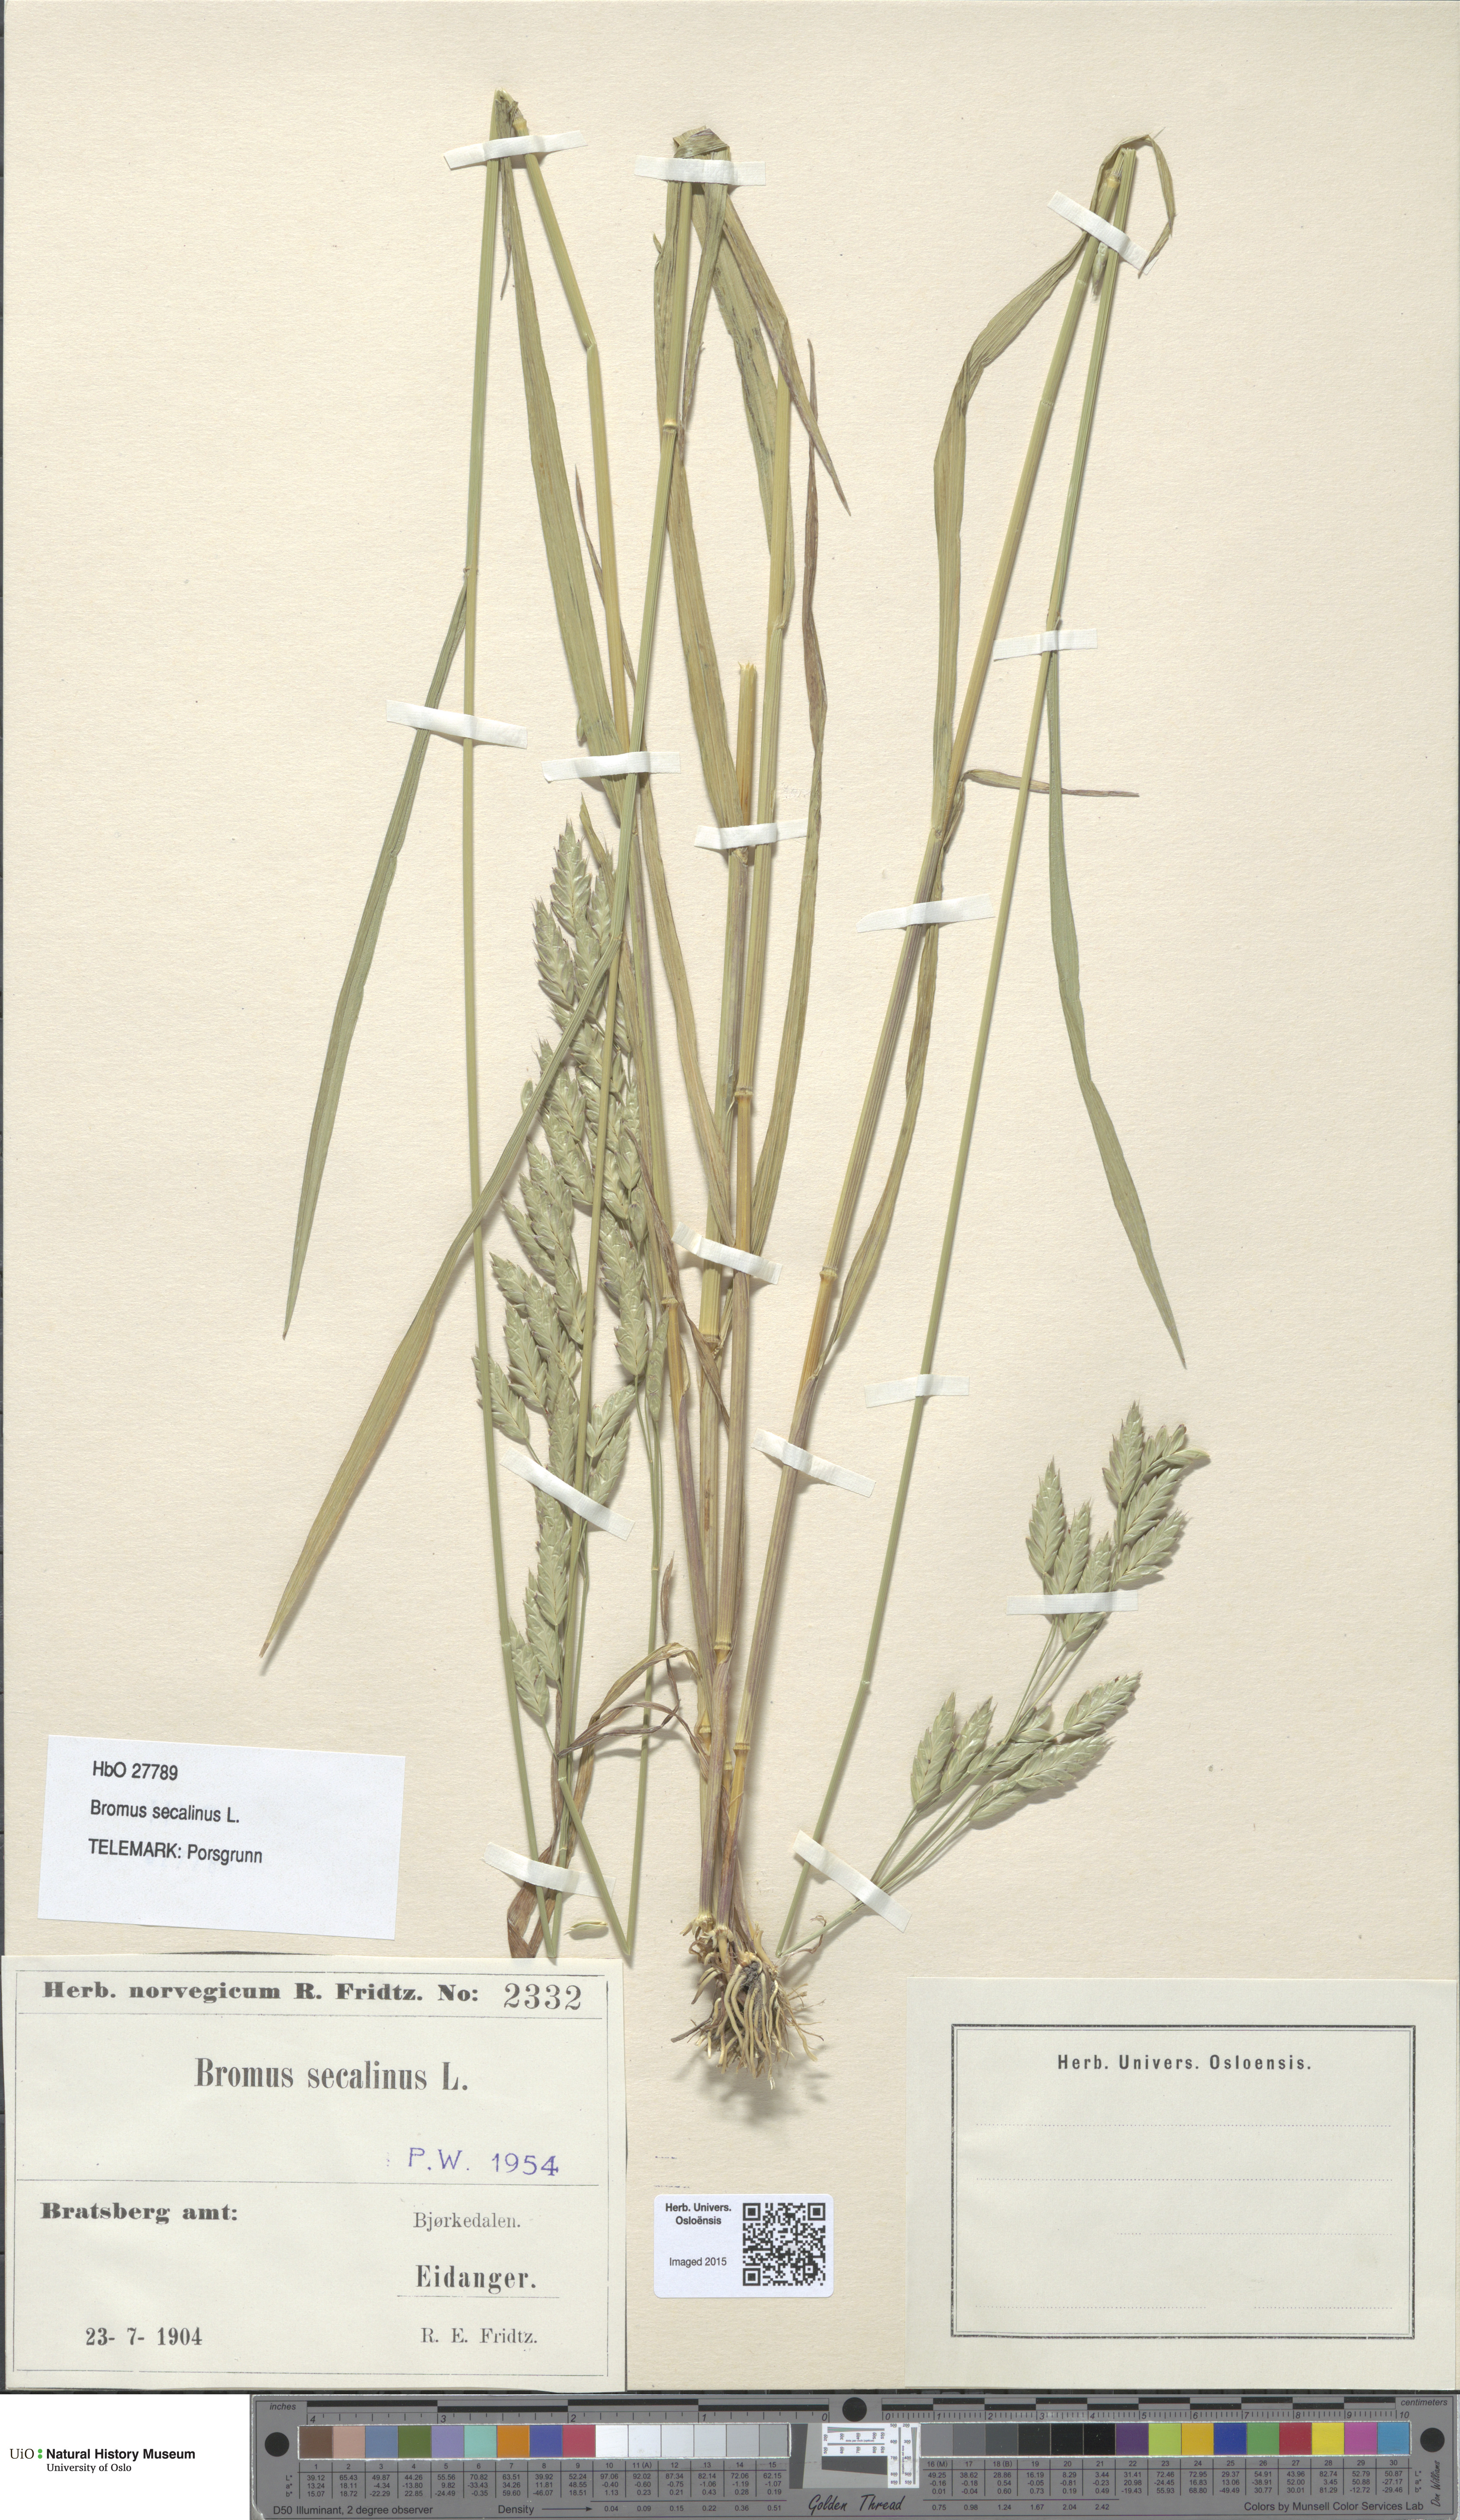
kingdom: Plantae
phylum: Tracheophyta
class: Liliopsida
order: Poales
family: Poaceae
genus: Bromus
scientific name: Bromus secalinus
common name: Rye brome
